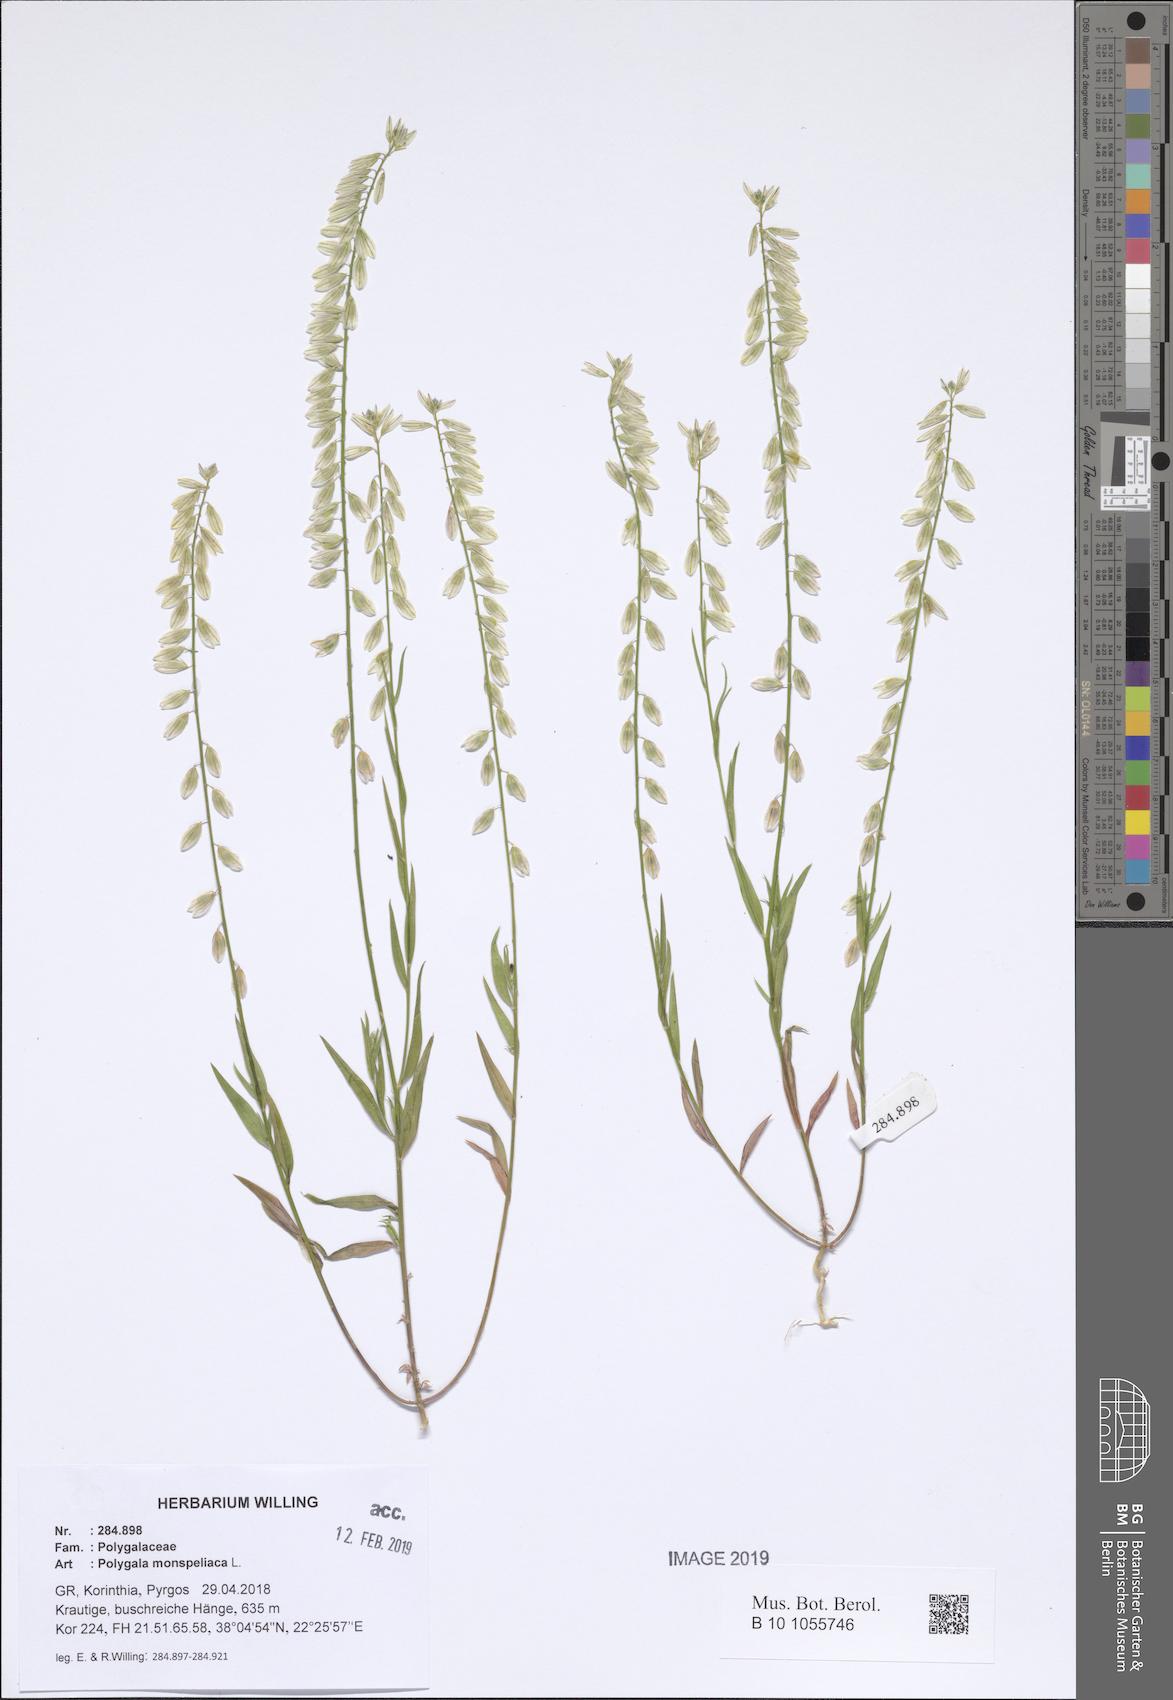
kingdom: Plantae
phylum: Tracheophyta
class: Magnoliopsida
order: Fabales
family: Polygalaceae
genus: Polygala
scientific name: Polygala monspeliaca
